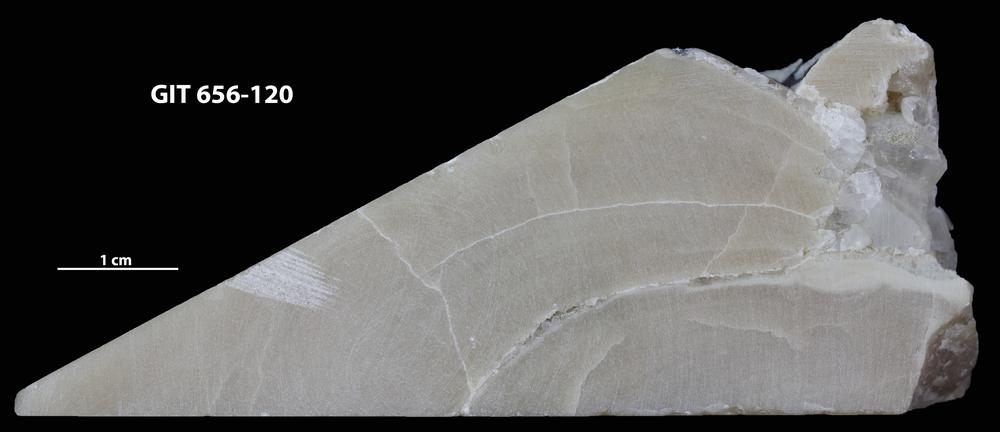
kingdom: Animalia
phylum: Porifera
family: Actinostromatidae
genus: Plectostroma
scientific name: Plectostroma
